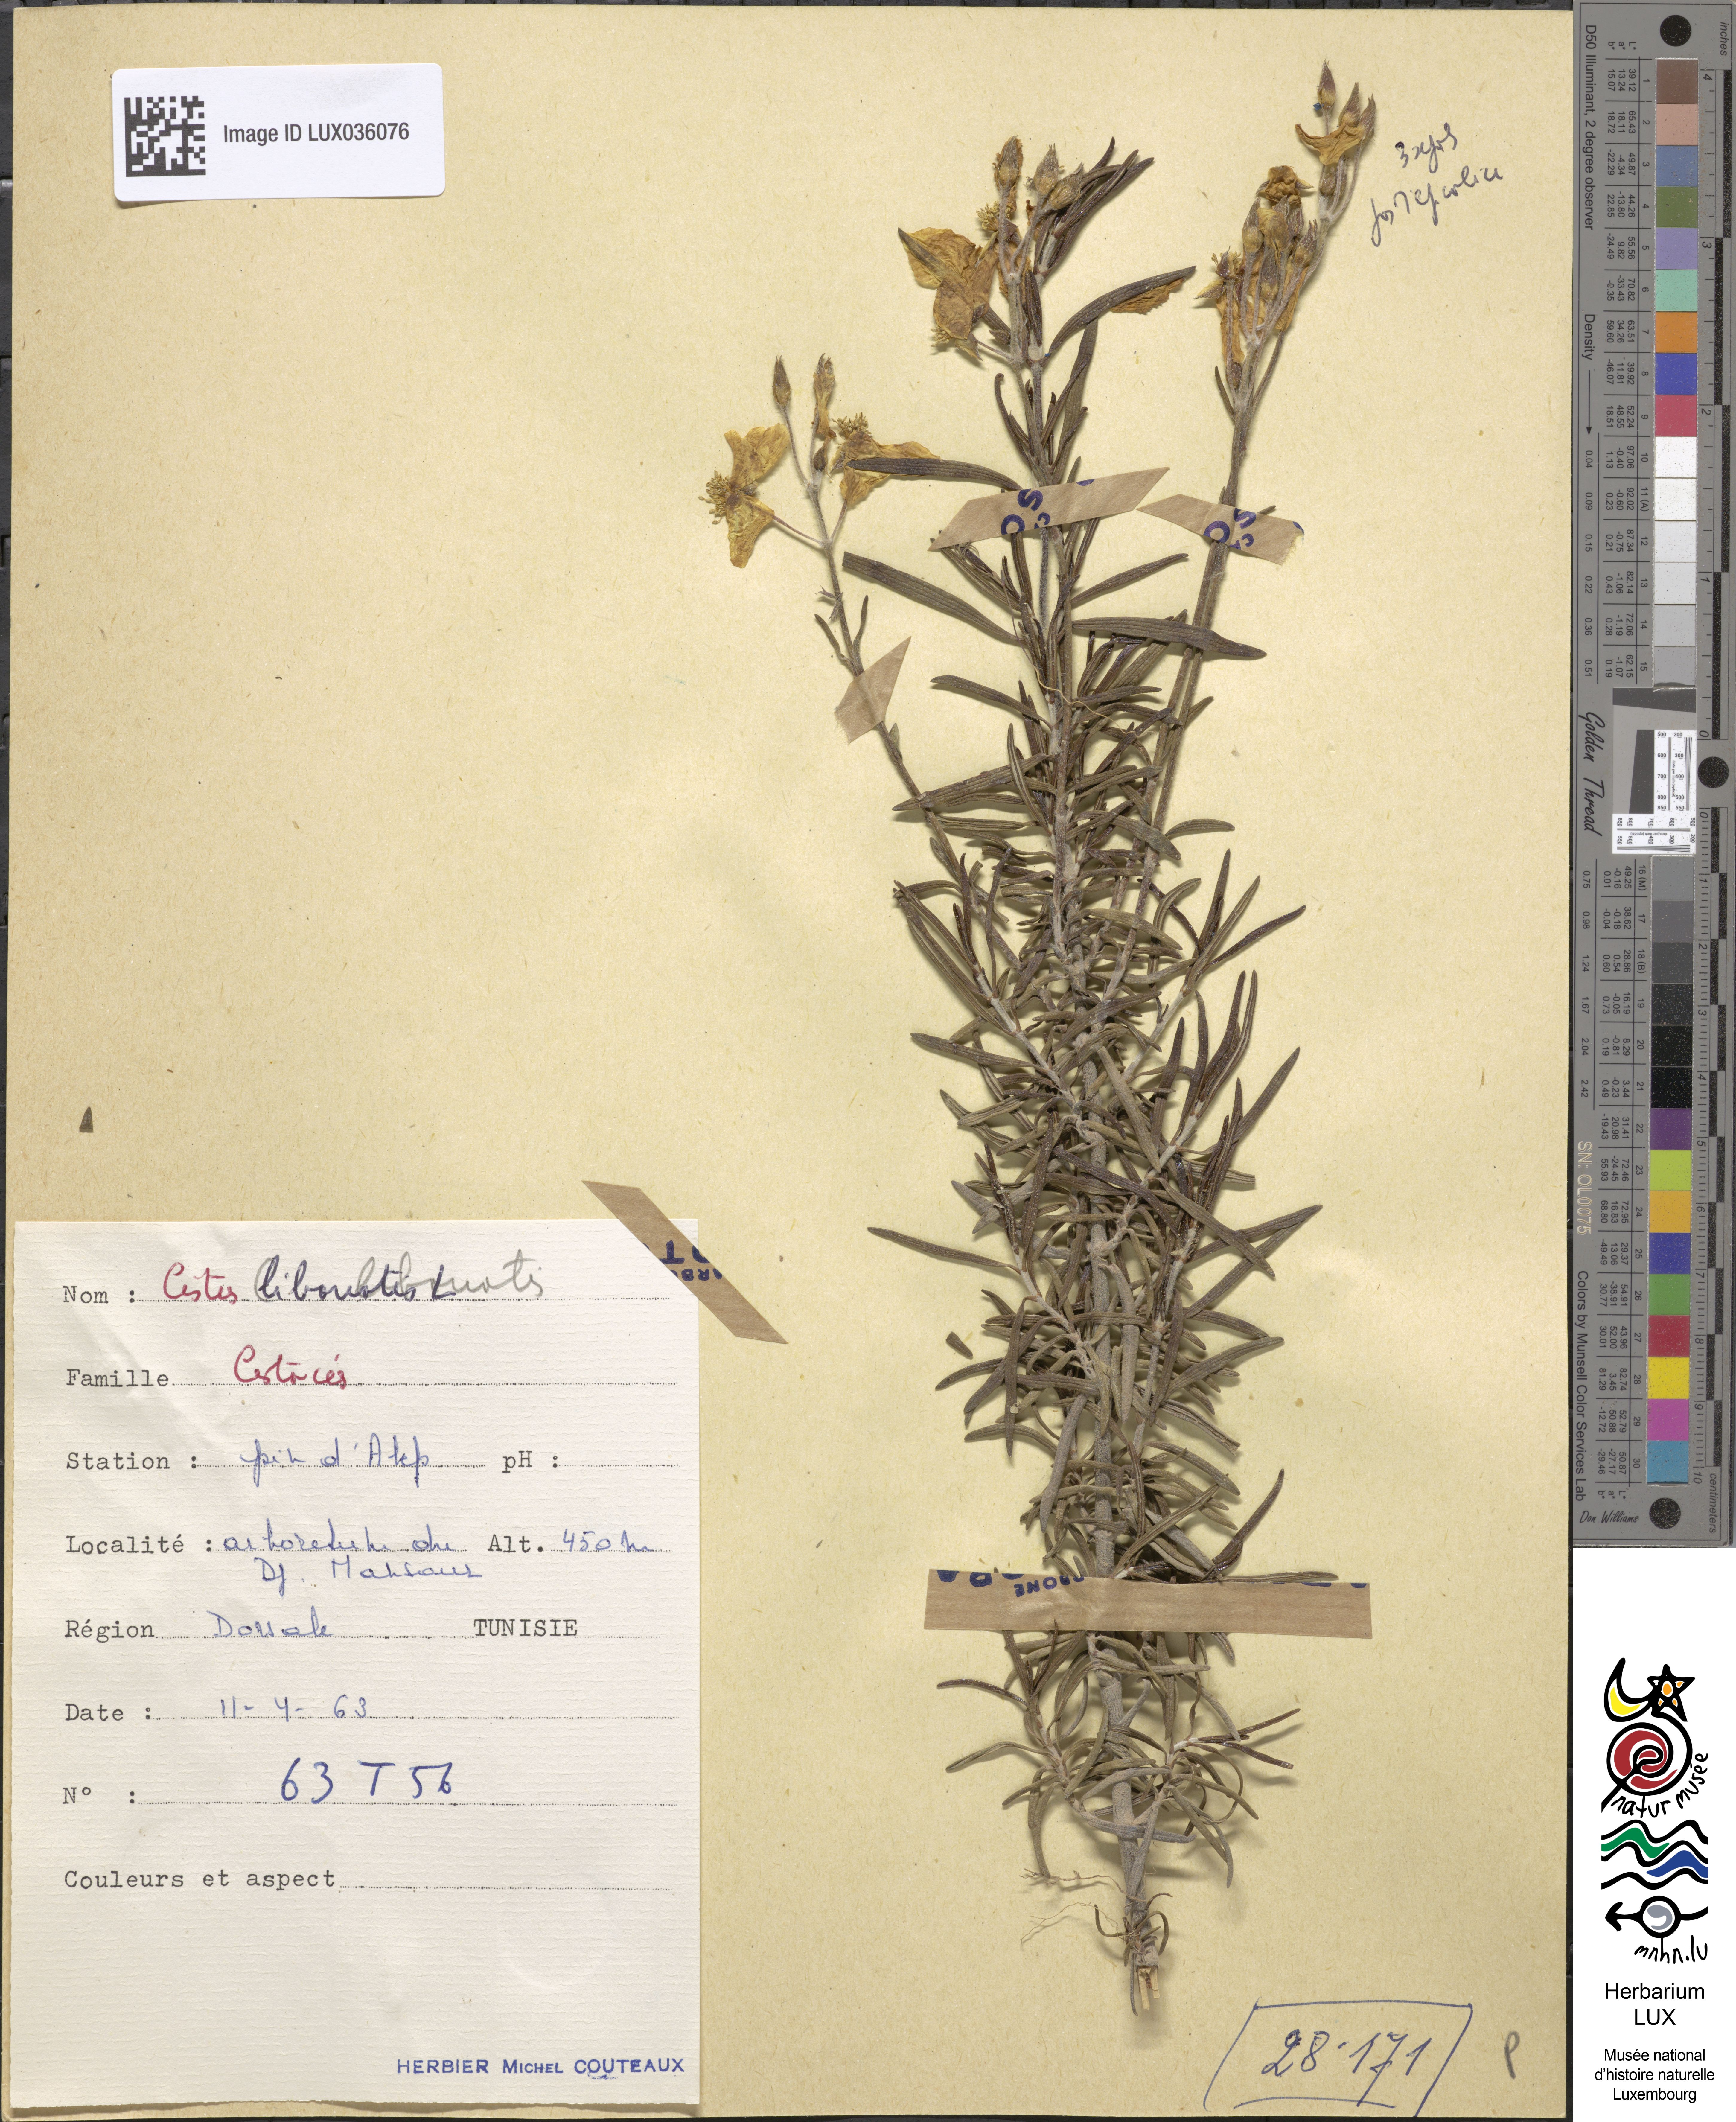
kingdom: Plantae
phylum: Tracheophyta
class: Magnoliopsida
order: Malvales
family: Cistaceae
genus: Cistus
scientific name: Cistus libanotis
